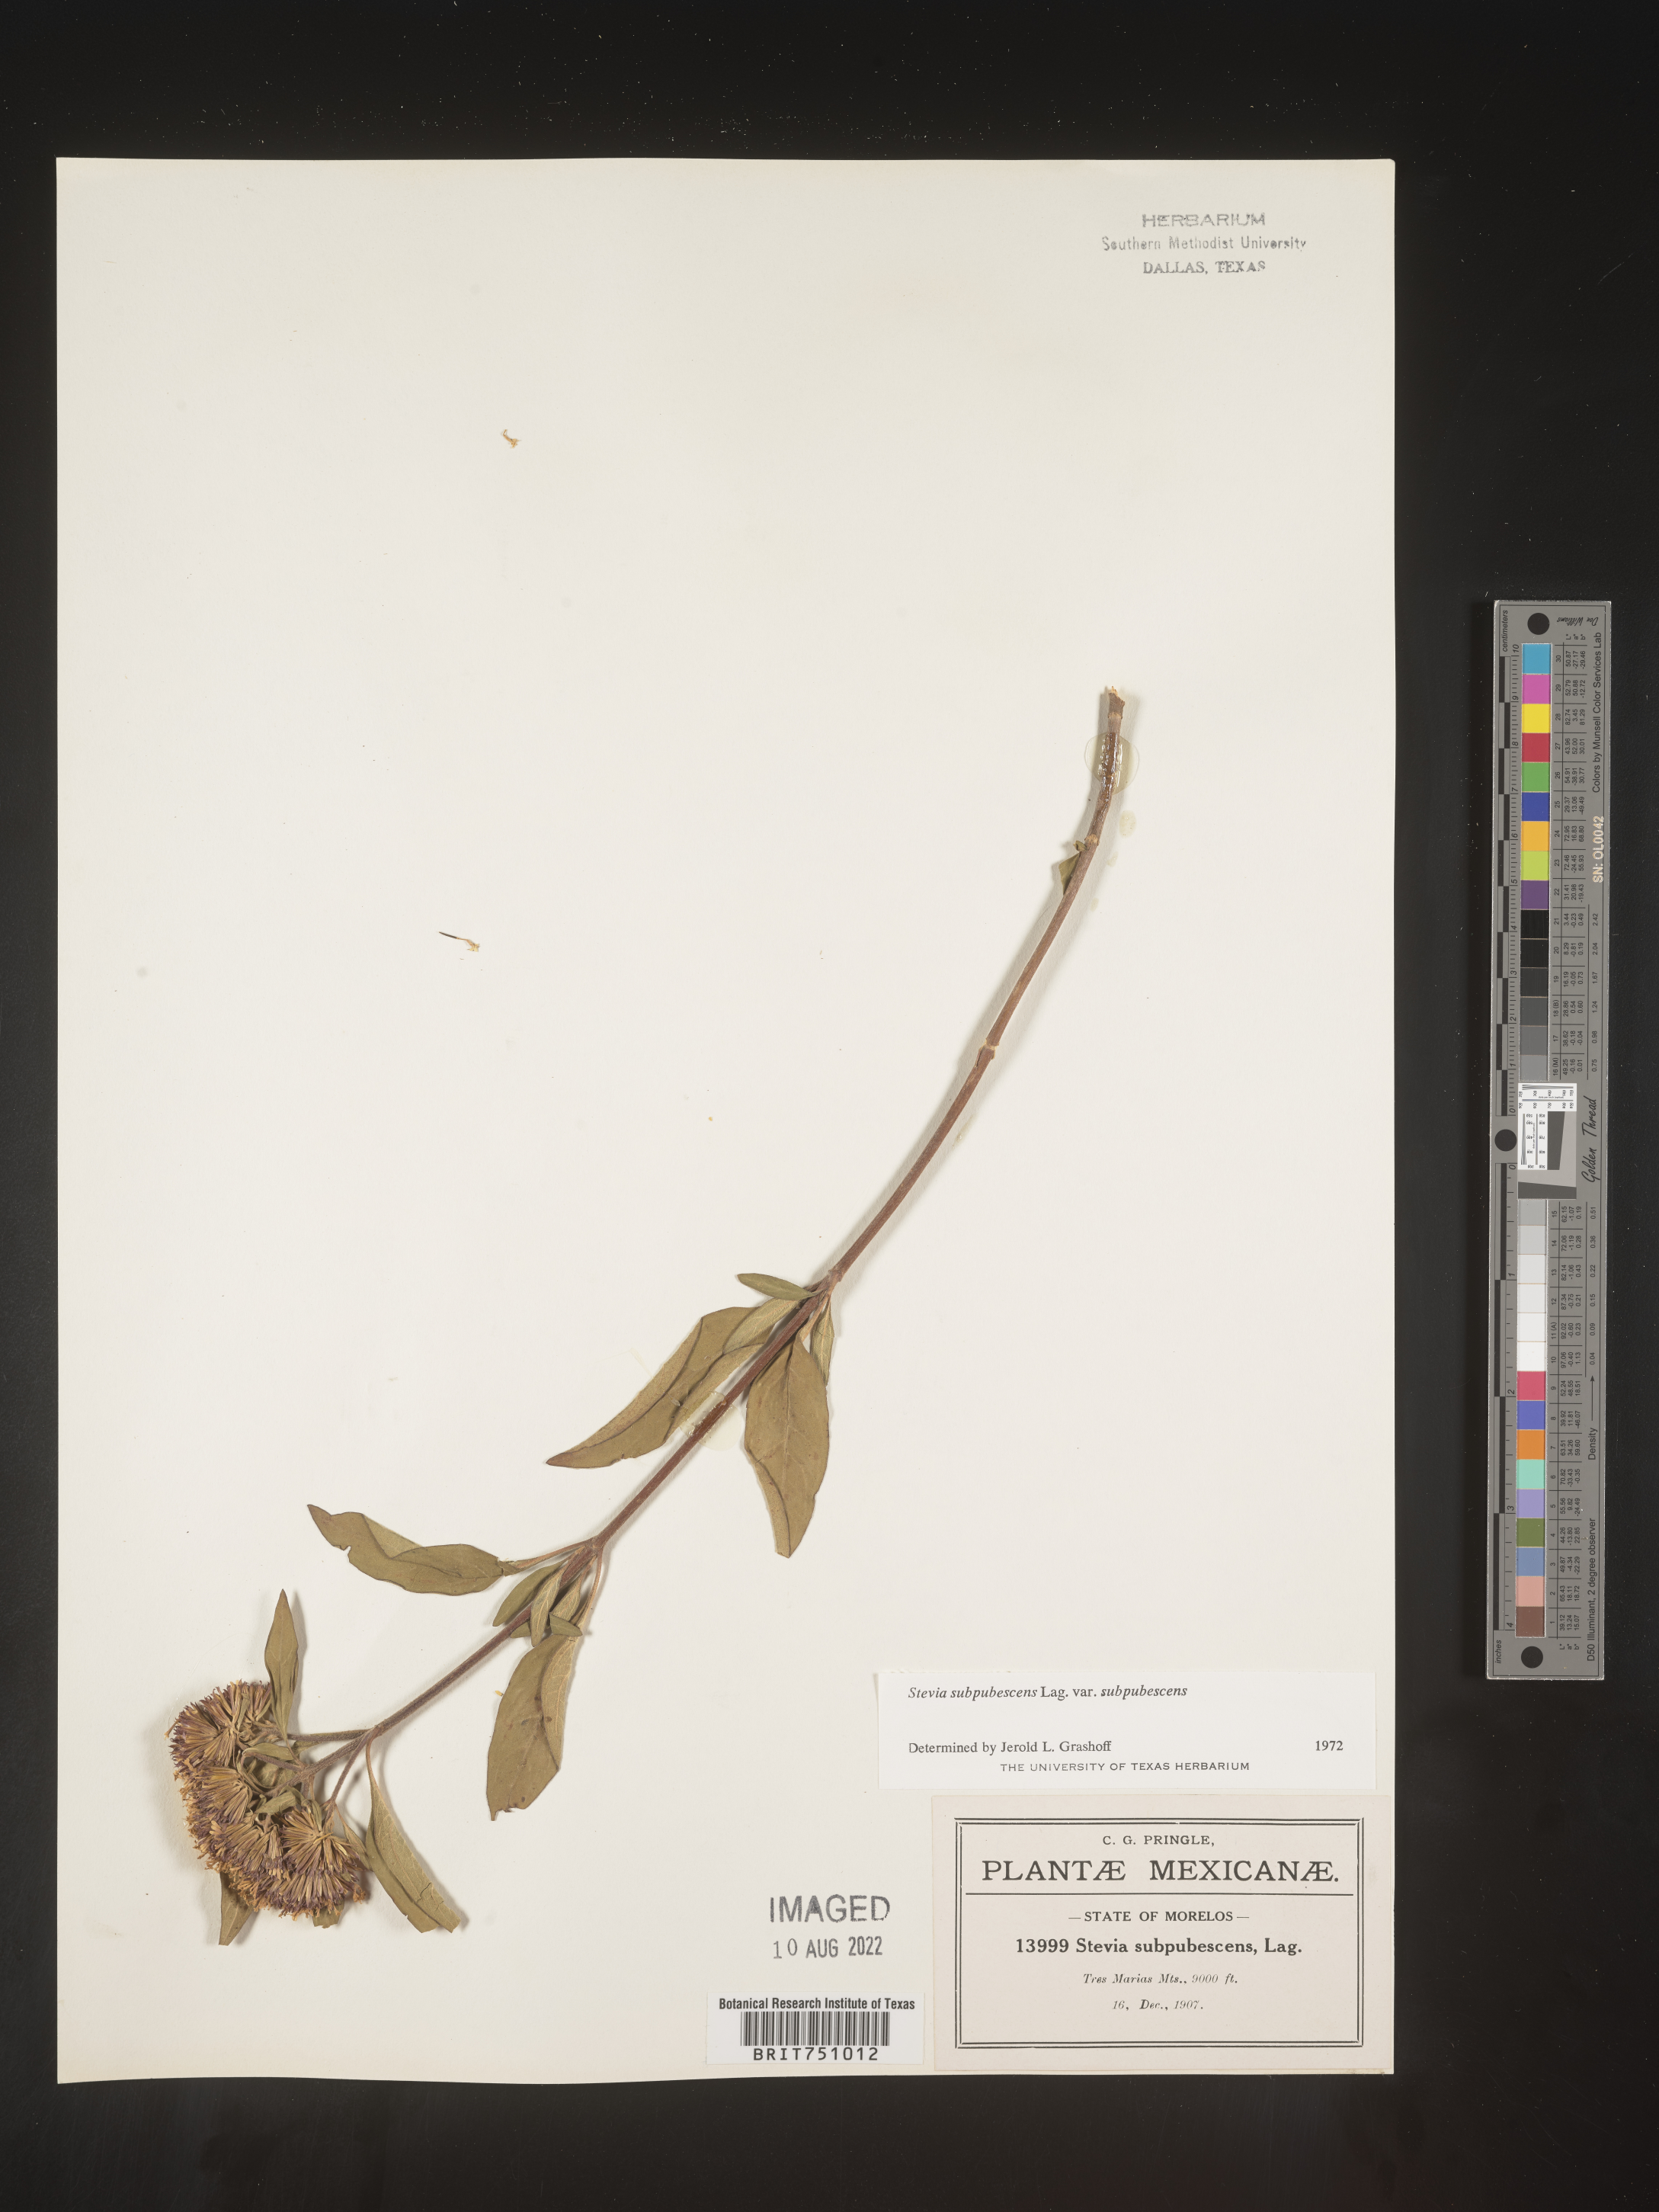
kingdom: Plantae
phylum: Tracheophyta
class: Magnoliopsida
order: Asterales
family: Asteraceae
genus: Stevia
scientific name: Stevia subpubescens
